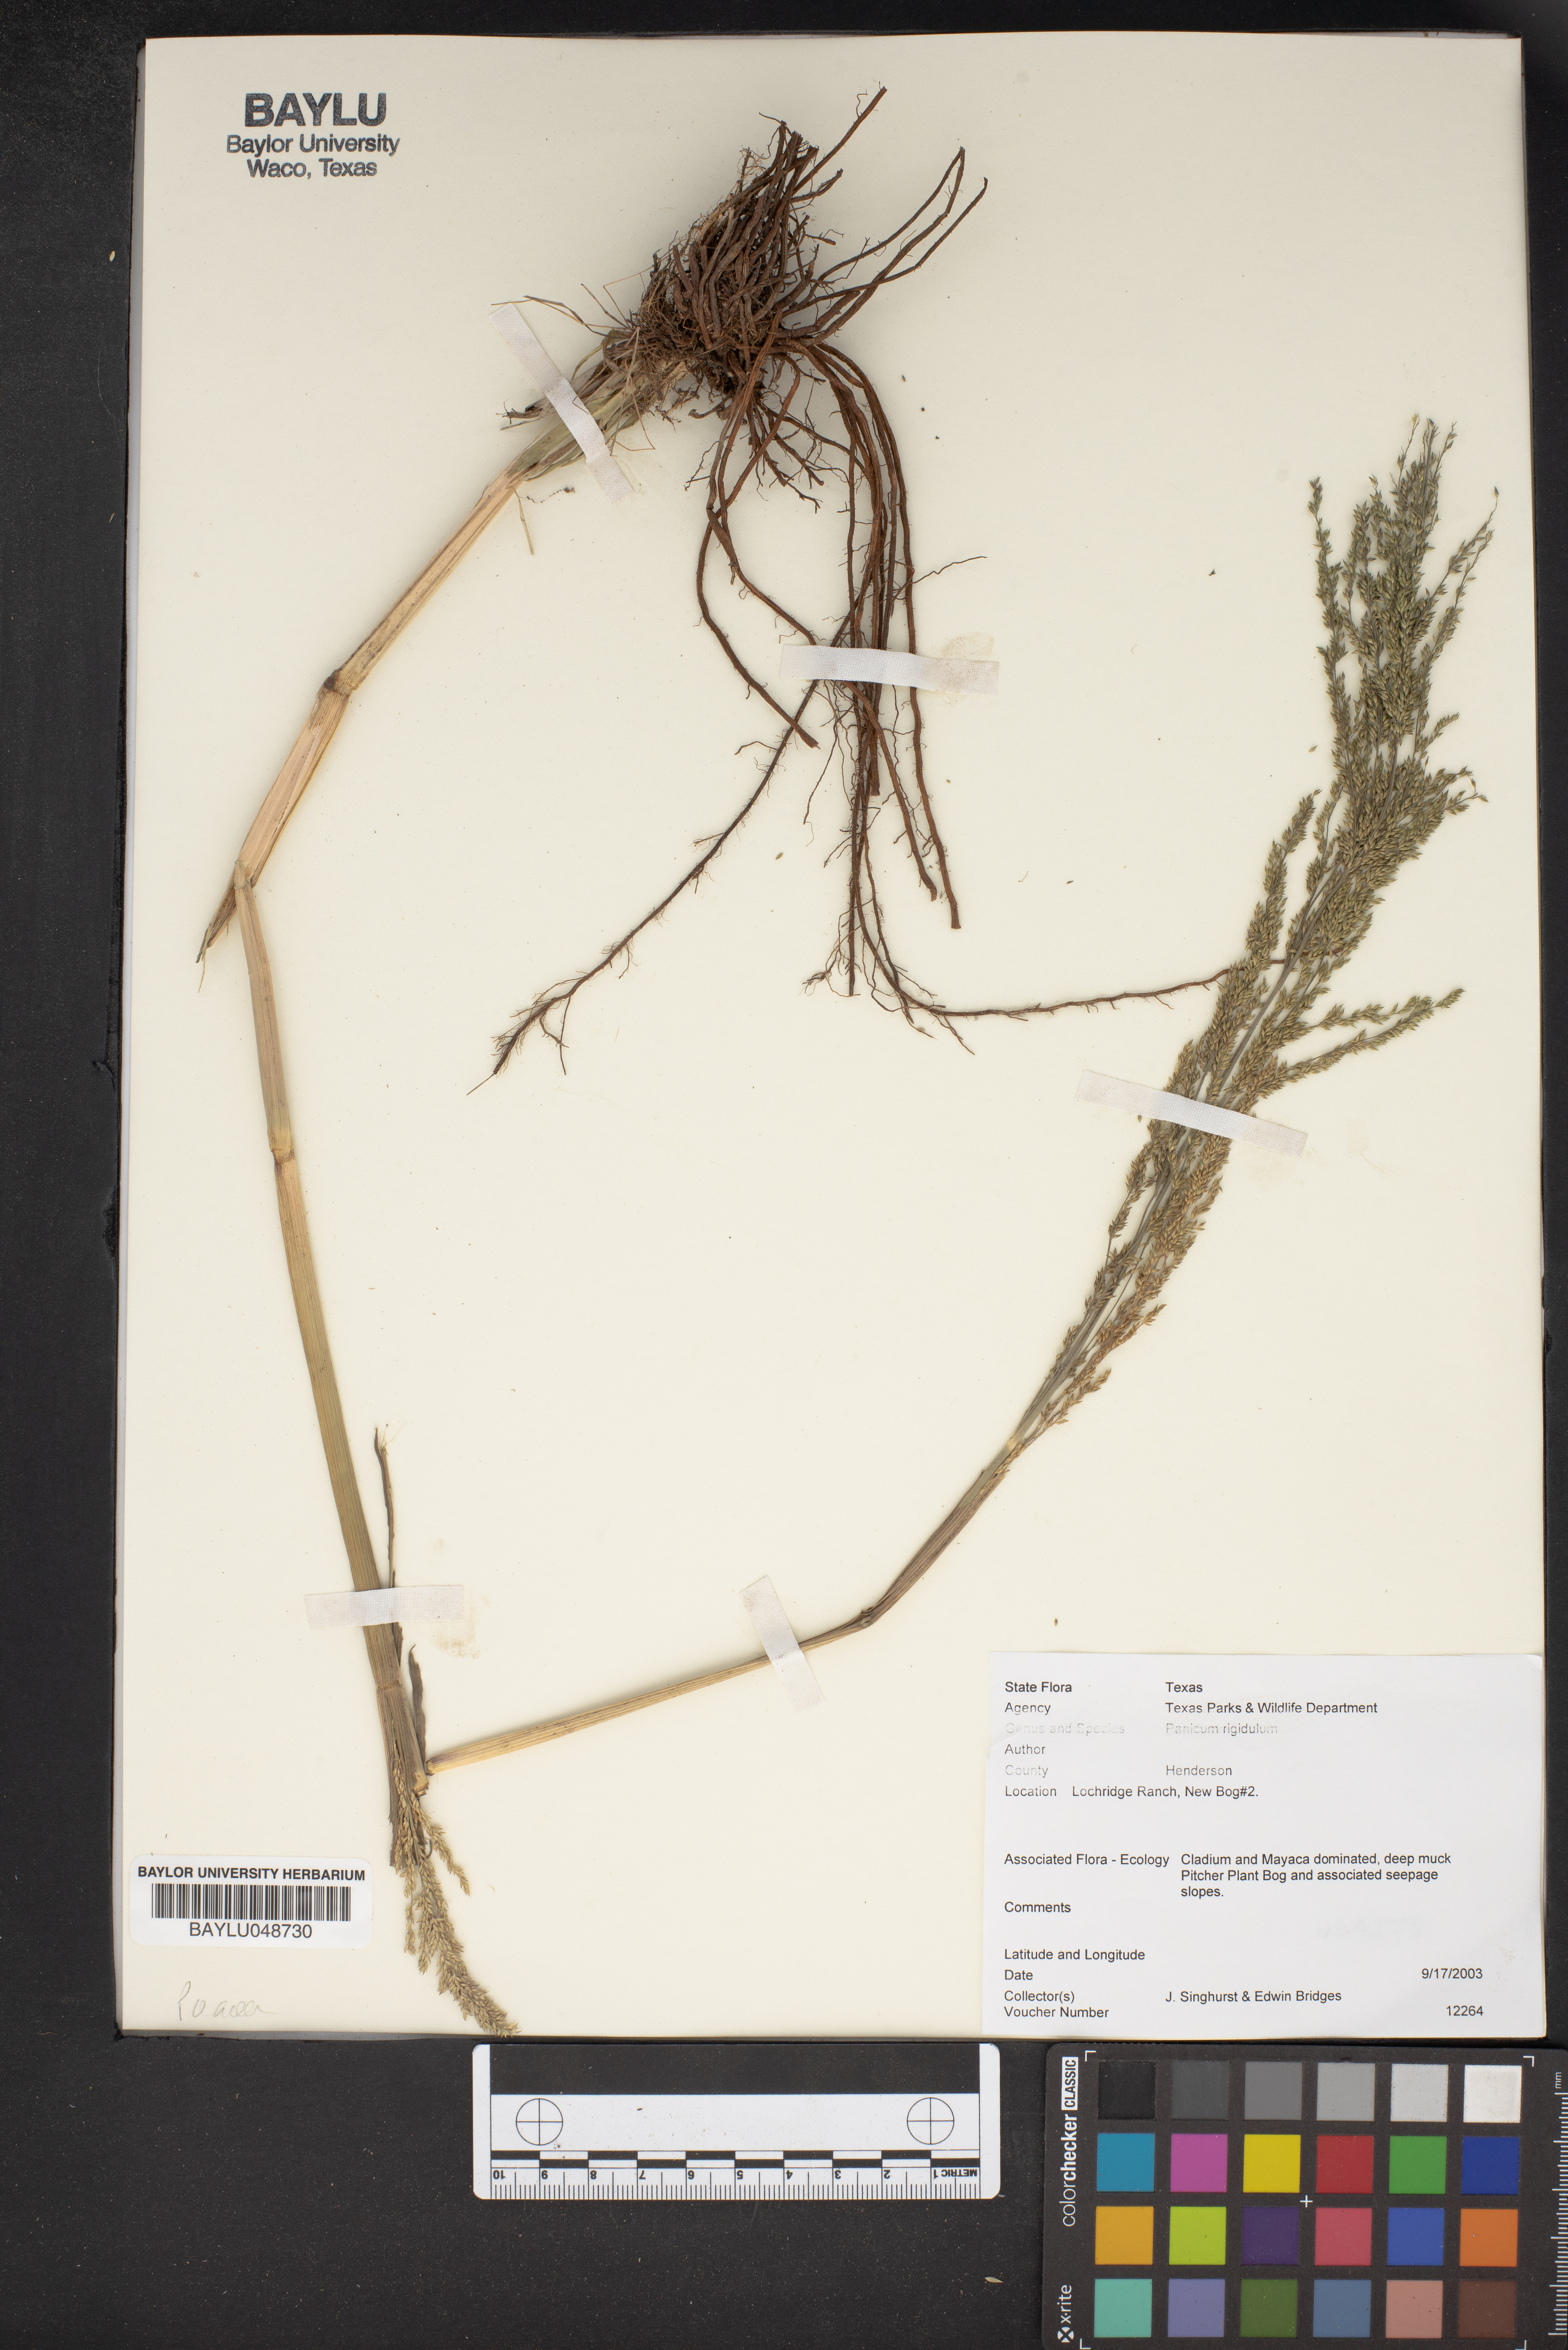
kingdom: Plantae
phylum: Tracheophyta
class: Liliopsida
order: Poales
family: Poaceae
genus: Coleataenia
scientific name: Coleataenia rigidula
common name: Redtop panicgrass
